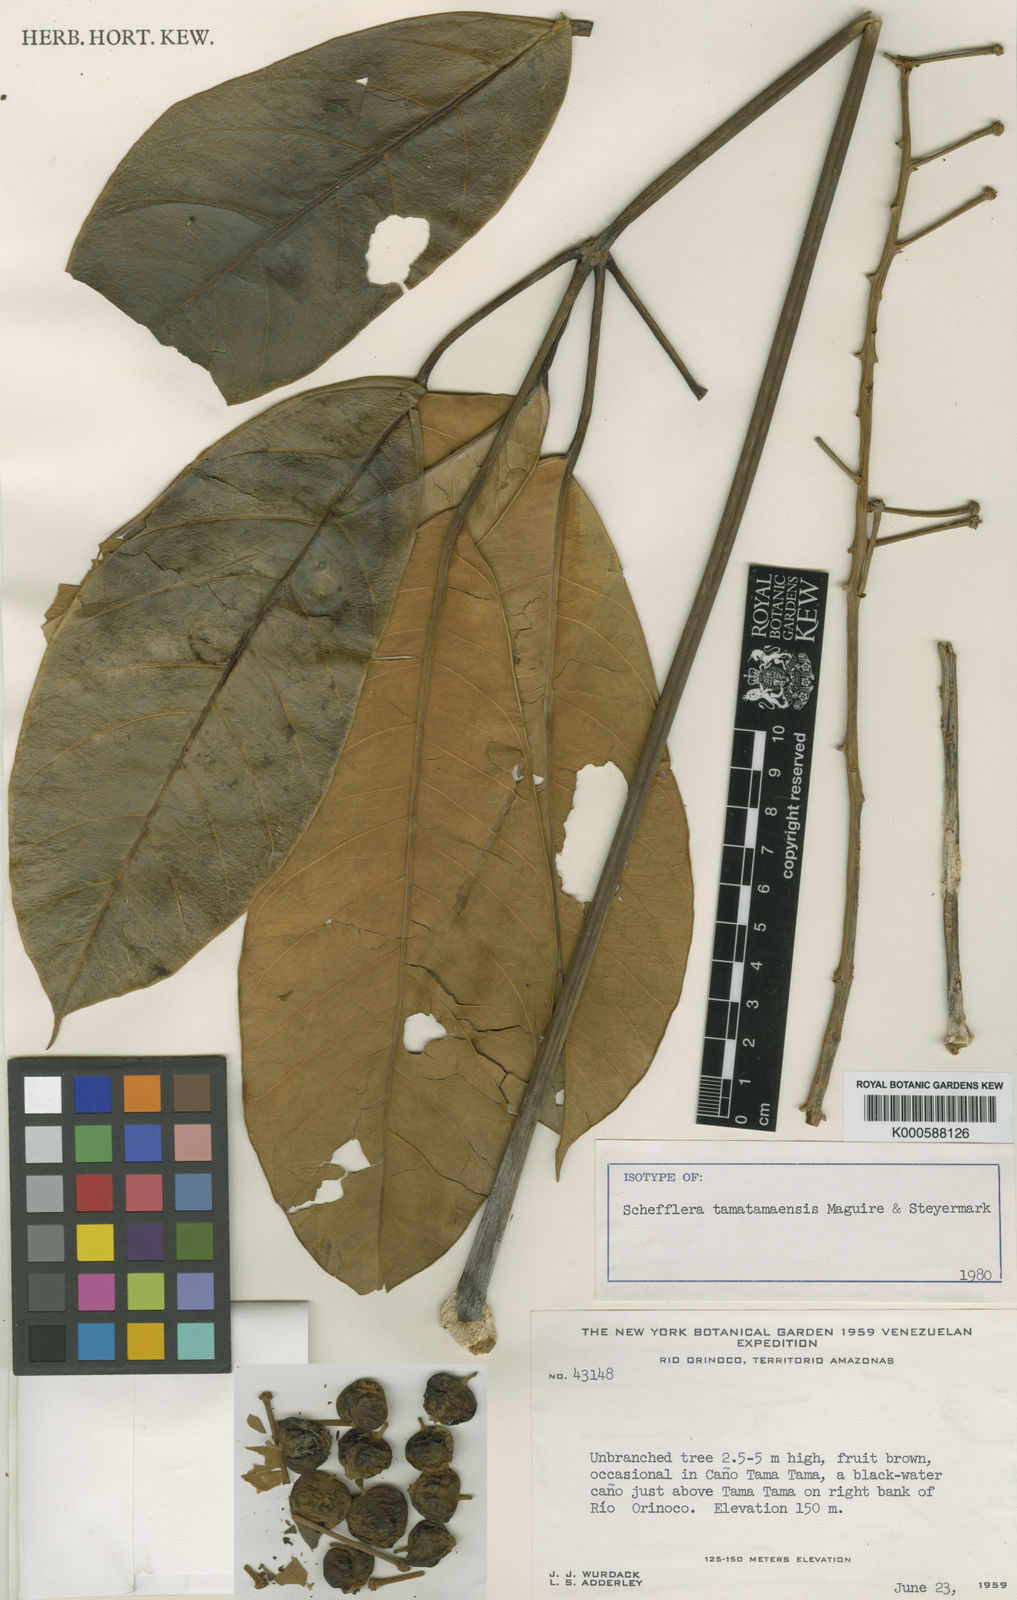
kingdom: Plantae
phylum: Tracheophyta
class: Magnoliopsida
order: Apiales
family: Araliaceae
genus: Didymopanax
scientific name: Didymopanax tamatamaensis
